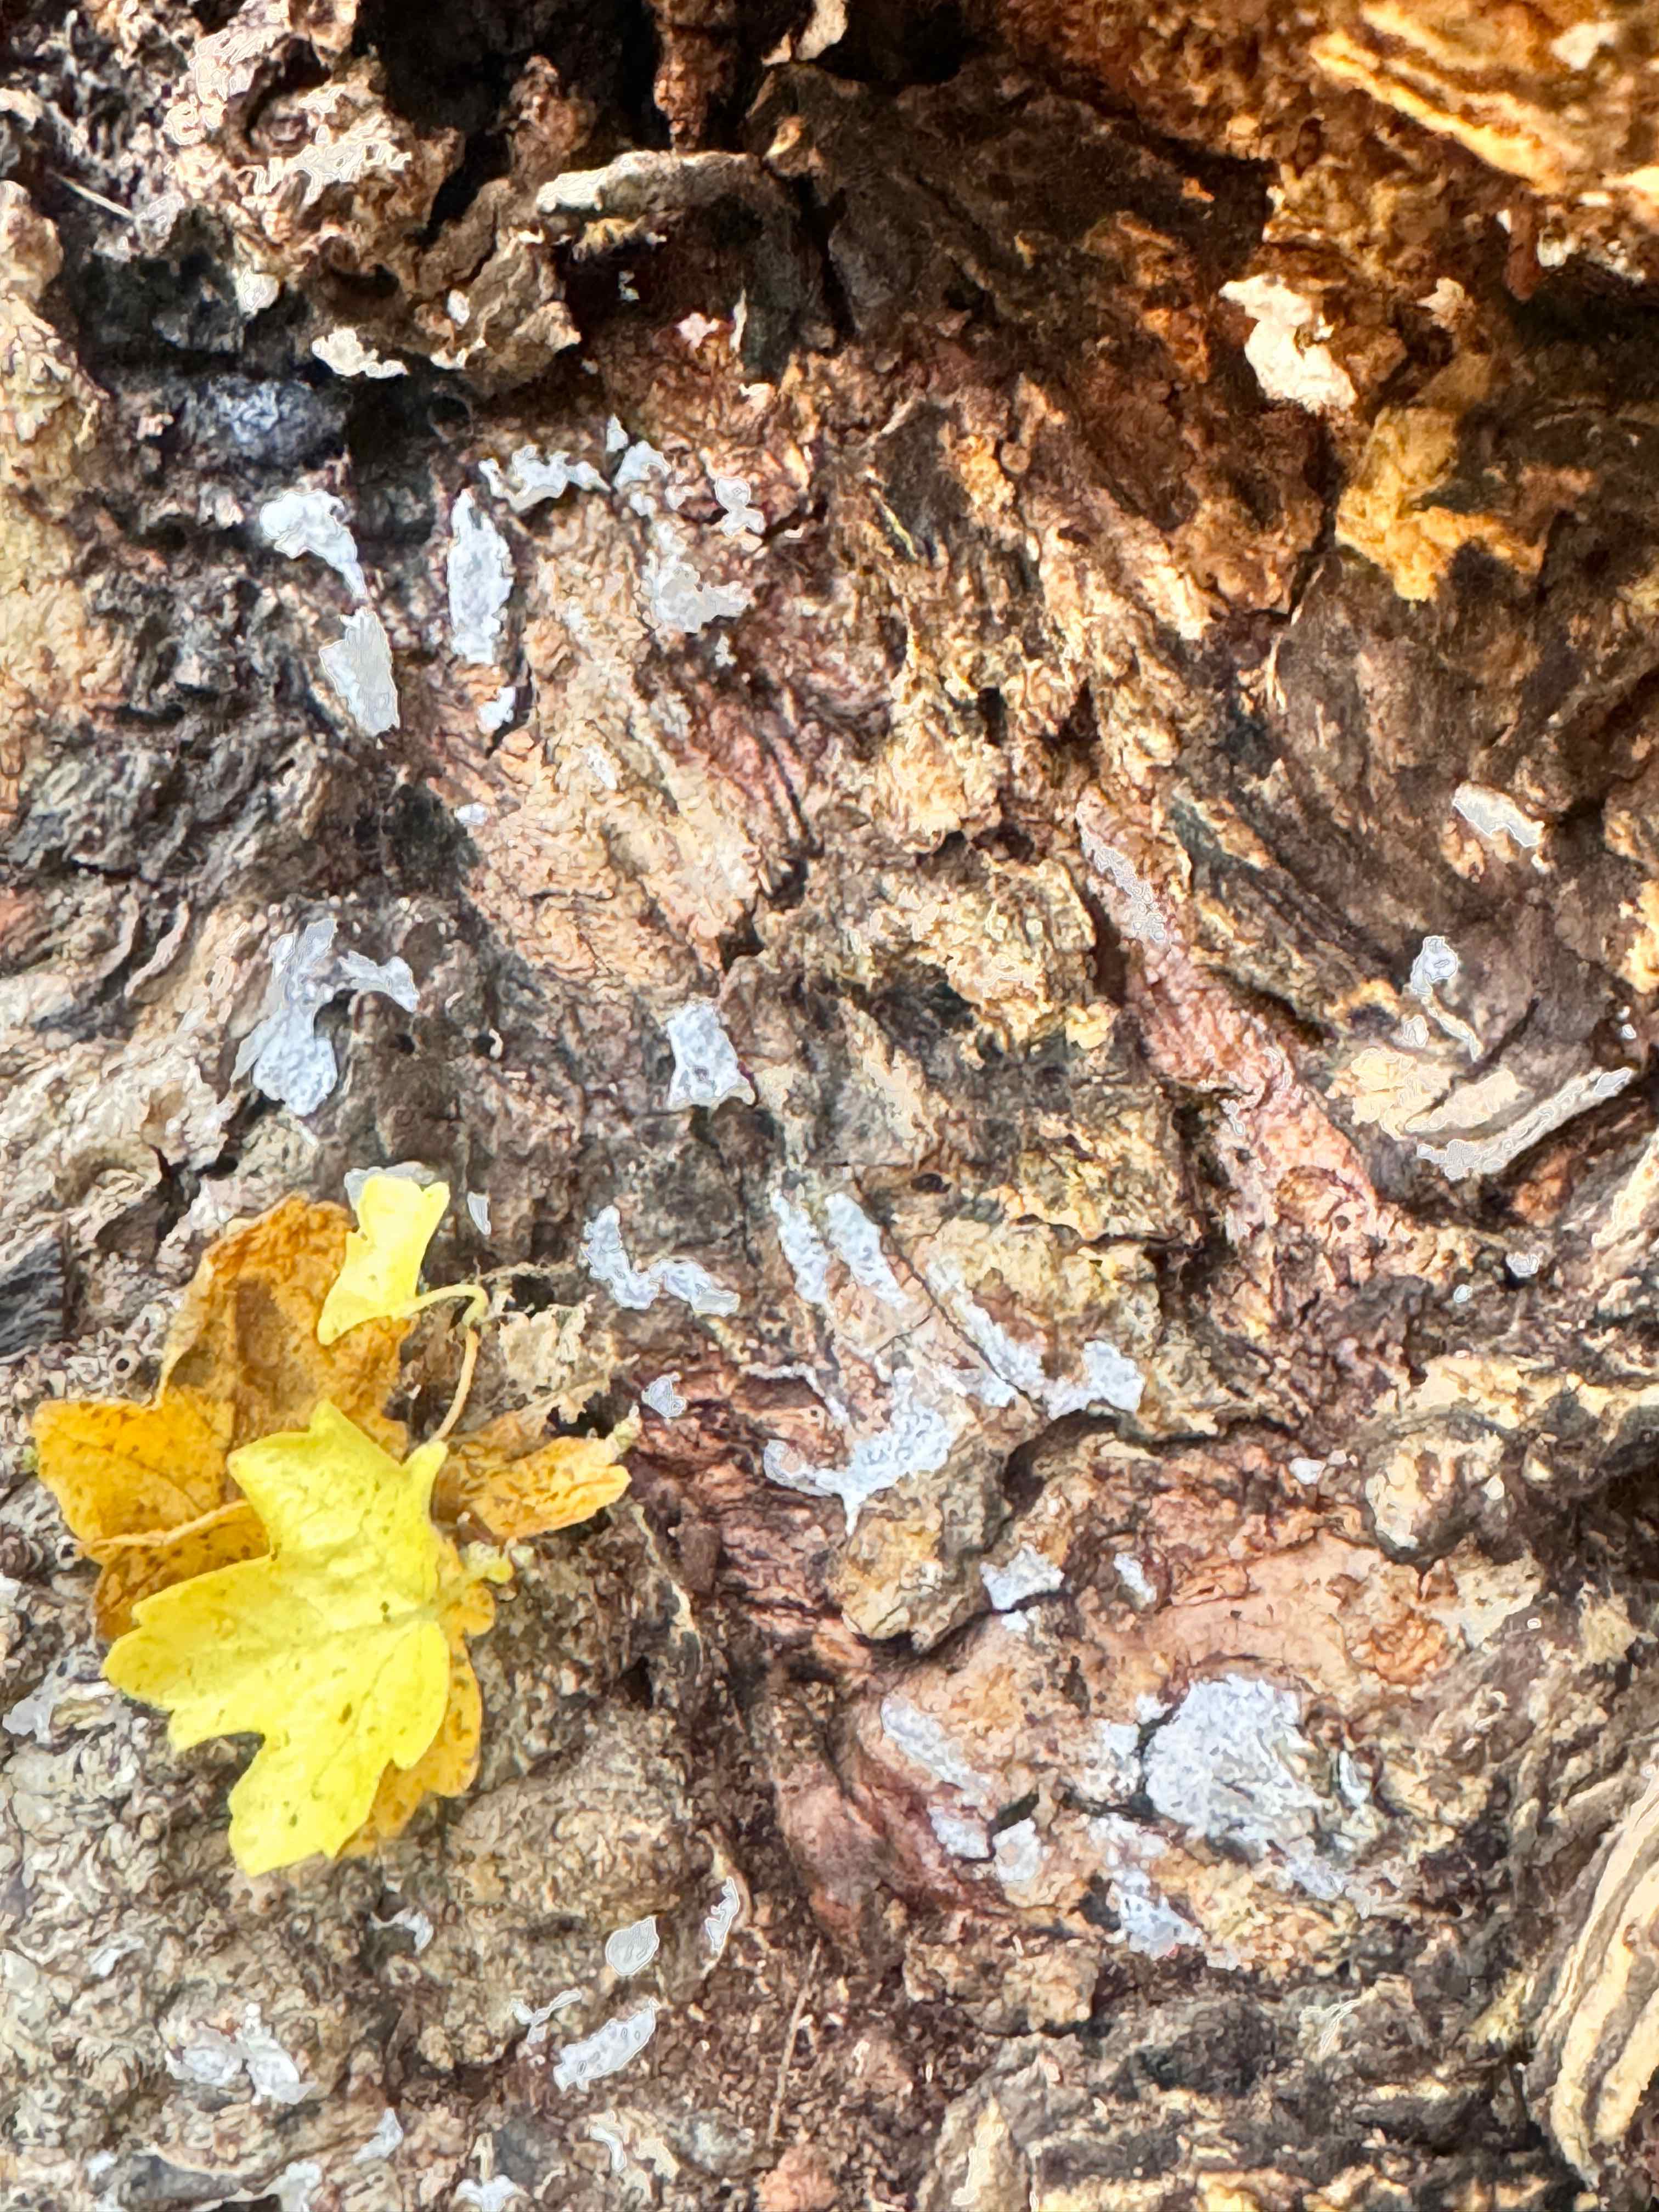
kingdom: Fungi
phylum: Basidiomycota
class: Agaricomycetes
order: Agaricales
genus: Dendrothele
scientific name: Dendrothele acerina
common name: navr-kalkplet
